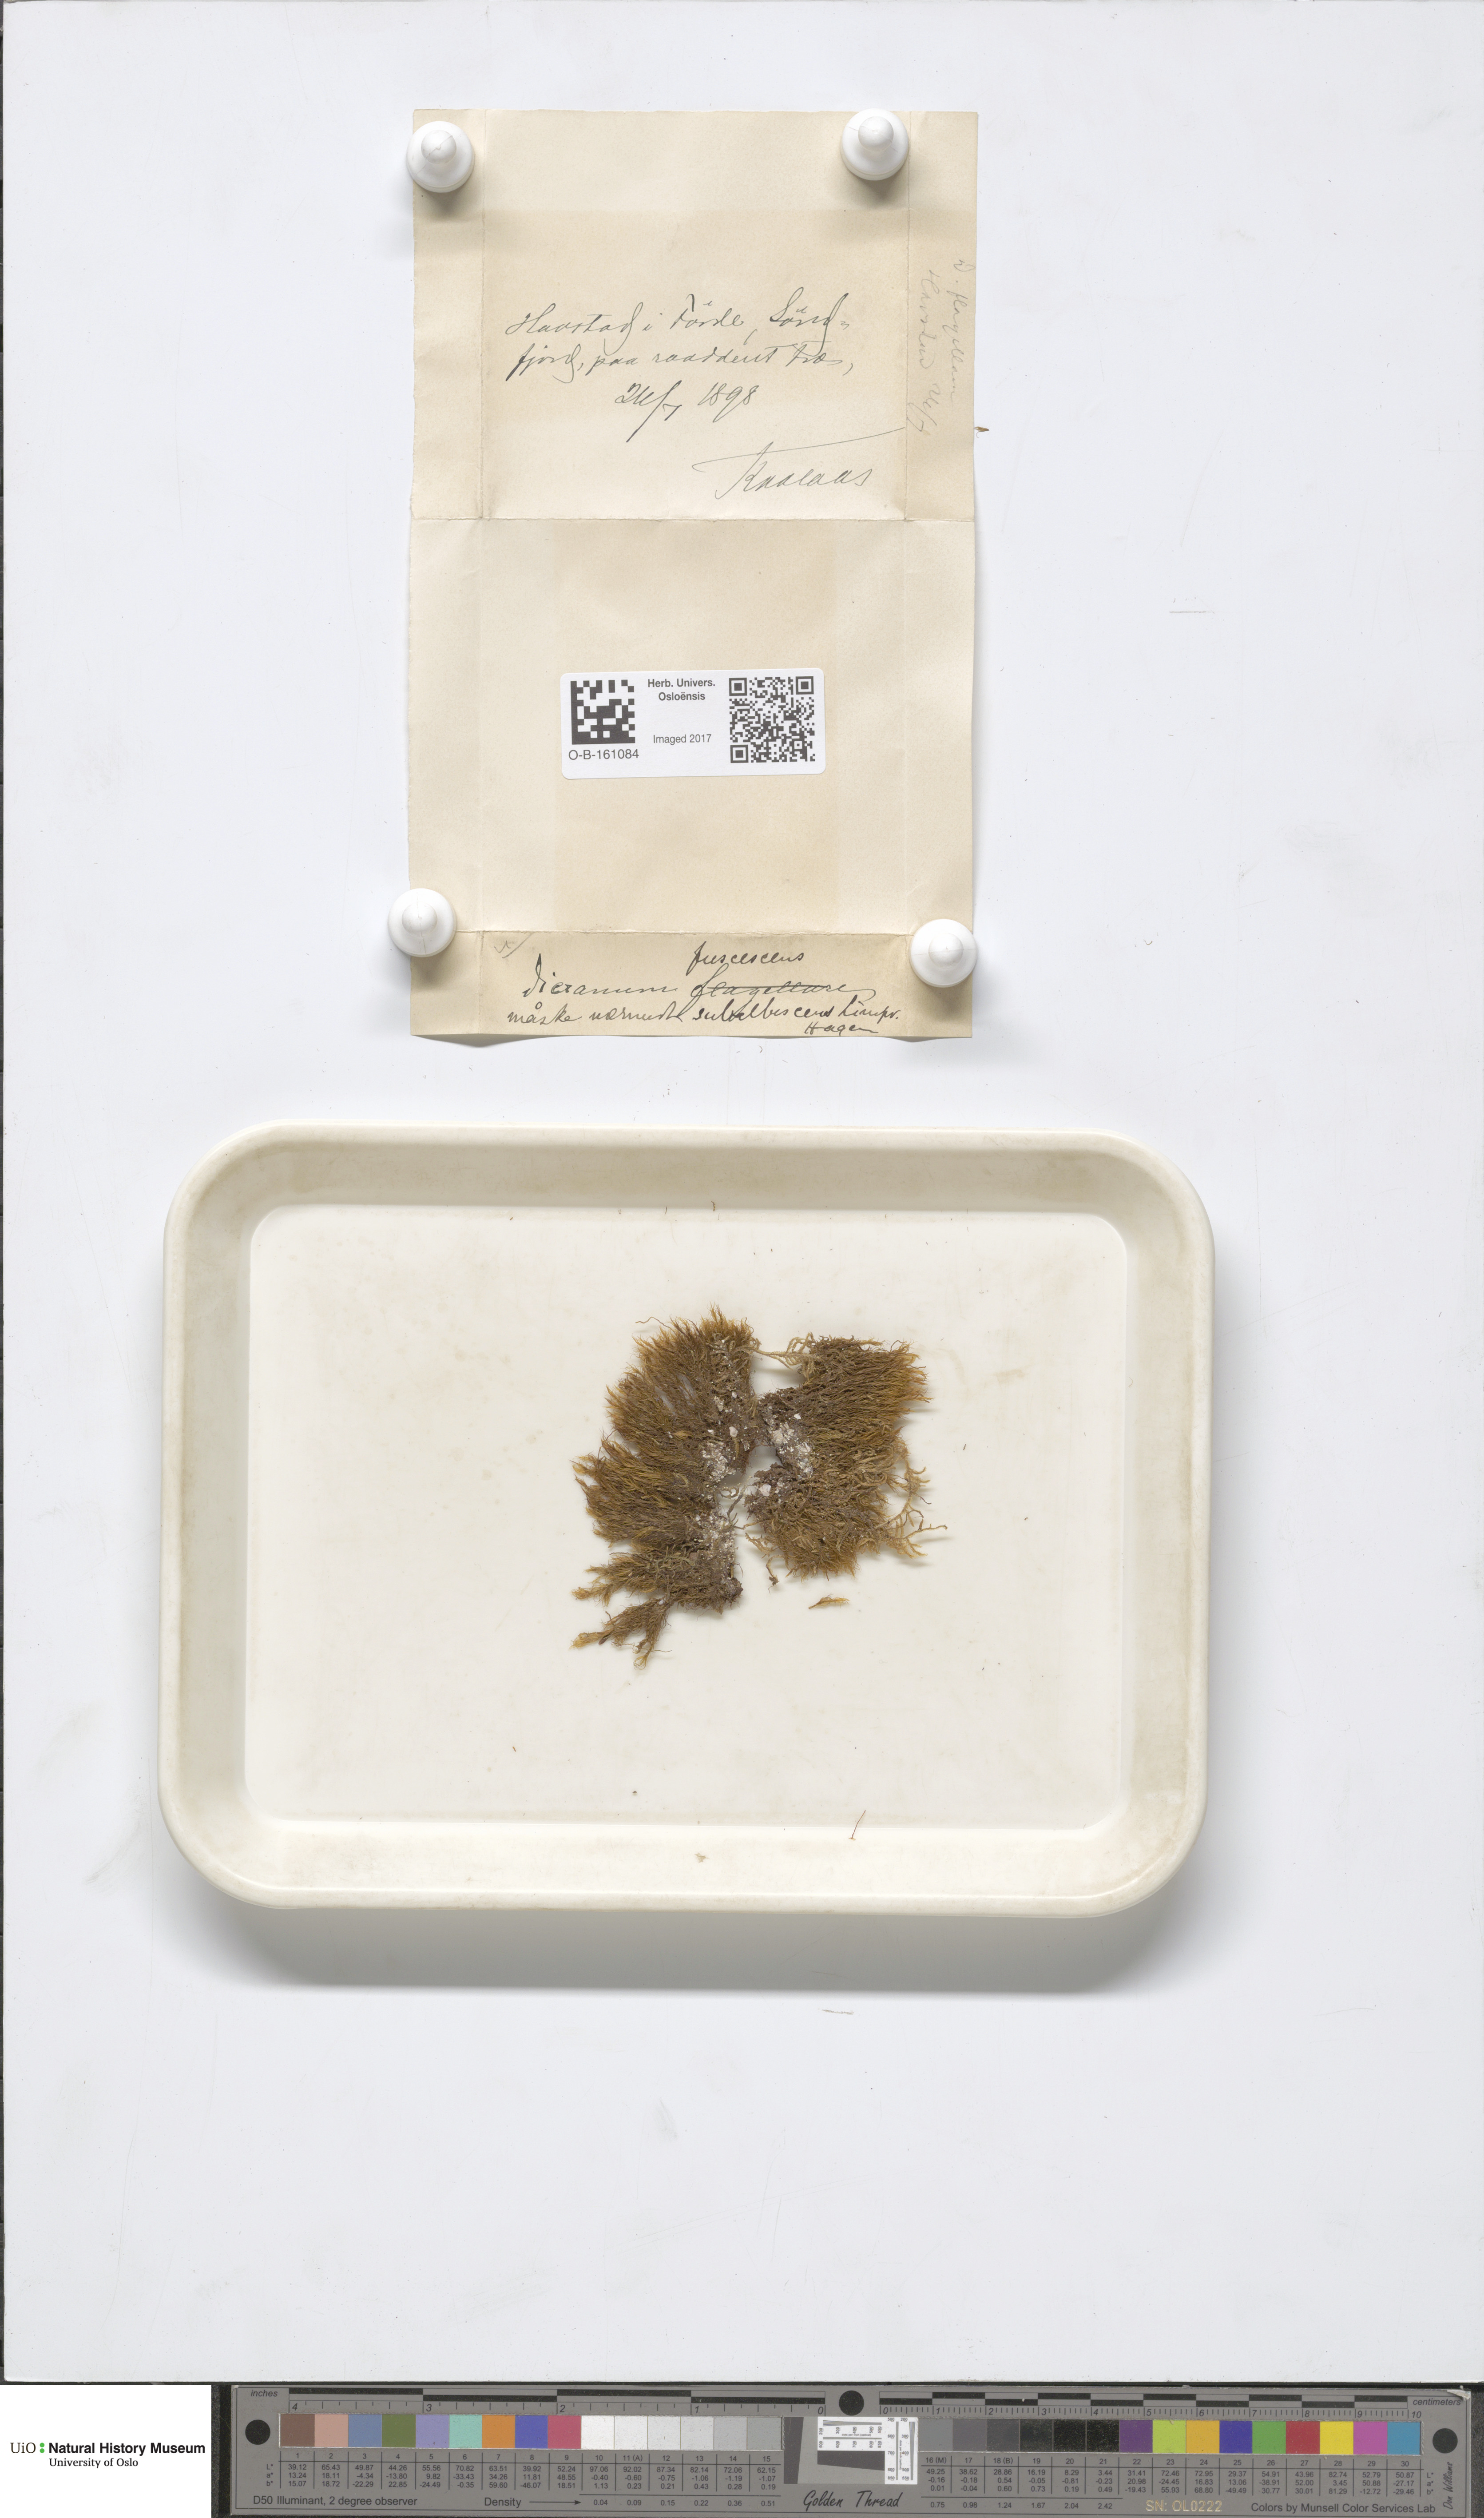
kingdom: Plantae
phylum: Bryophyta
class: Bryopsida
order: Dicranales
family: Dicranaceae
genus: Dicranum
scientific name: Dicranum fuscescens
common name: Curly heron's-bill moss
